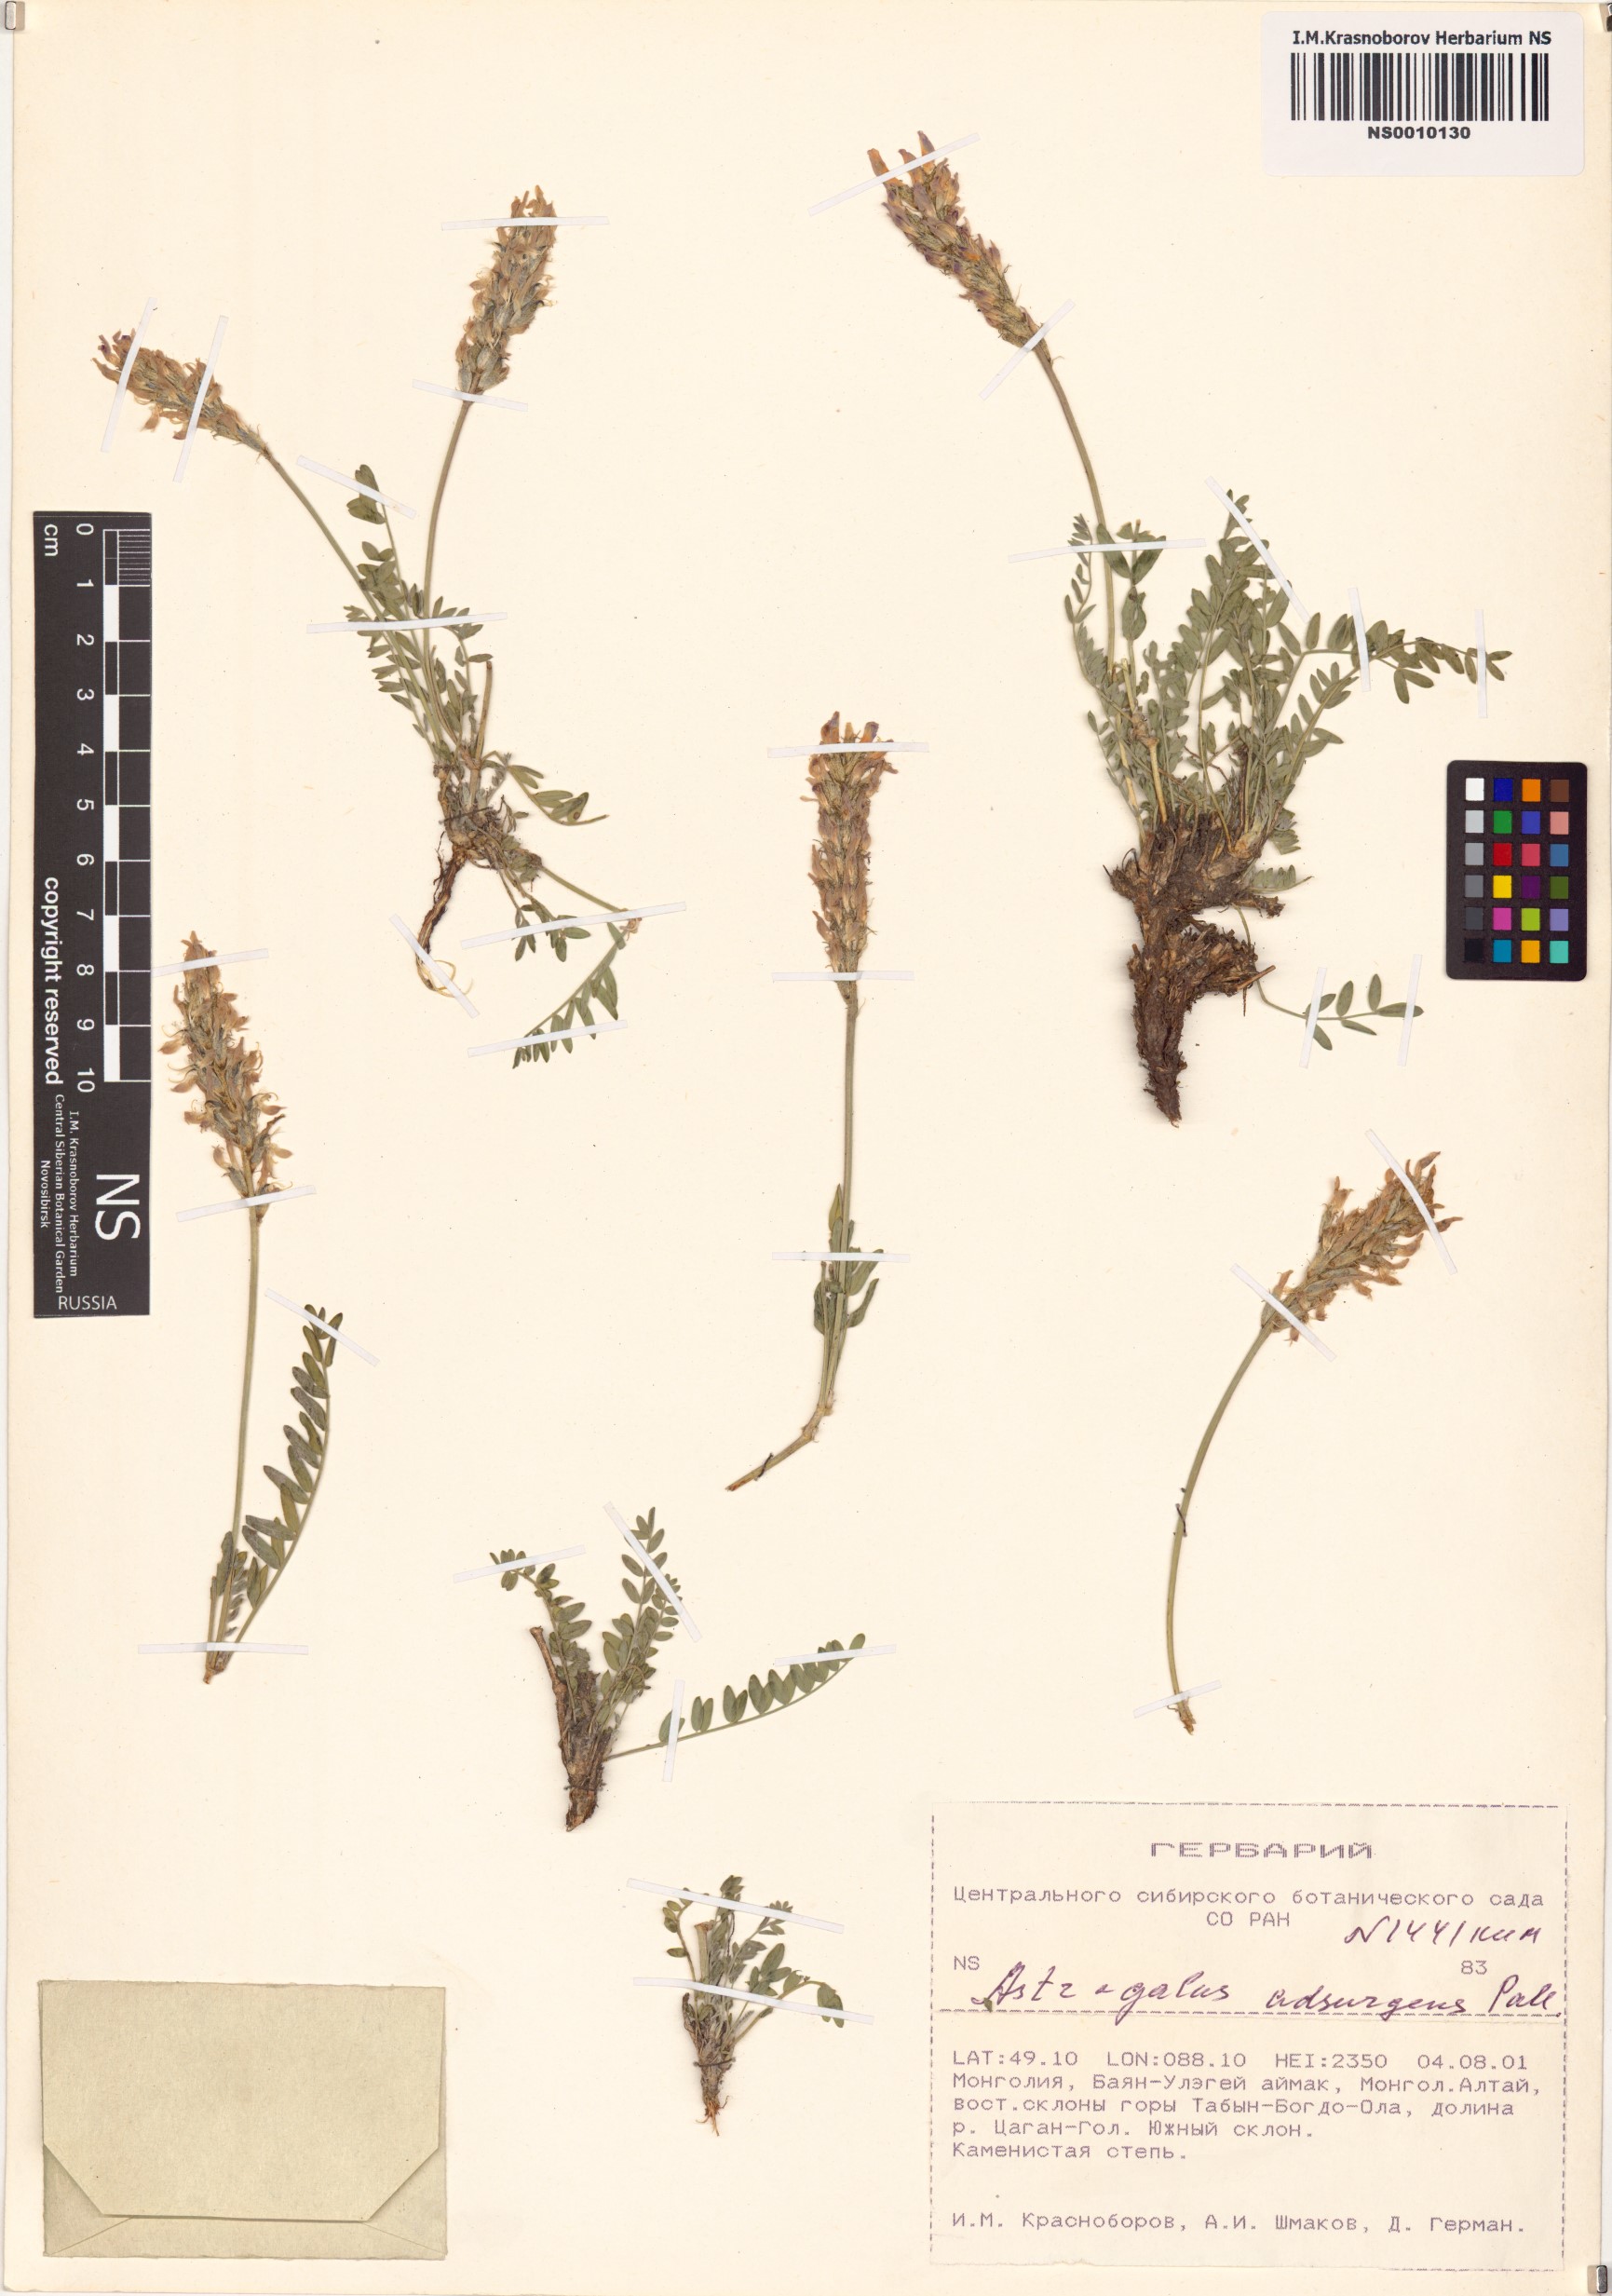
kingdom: Plantae
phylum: Tracheophyta
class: Magnoliopsida
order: Fabales
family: Fabaceae
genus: Astragalus
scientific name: Astragalus laxmannii
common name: Laxmann's milk-vetch
